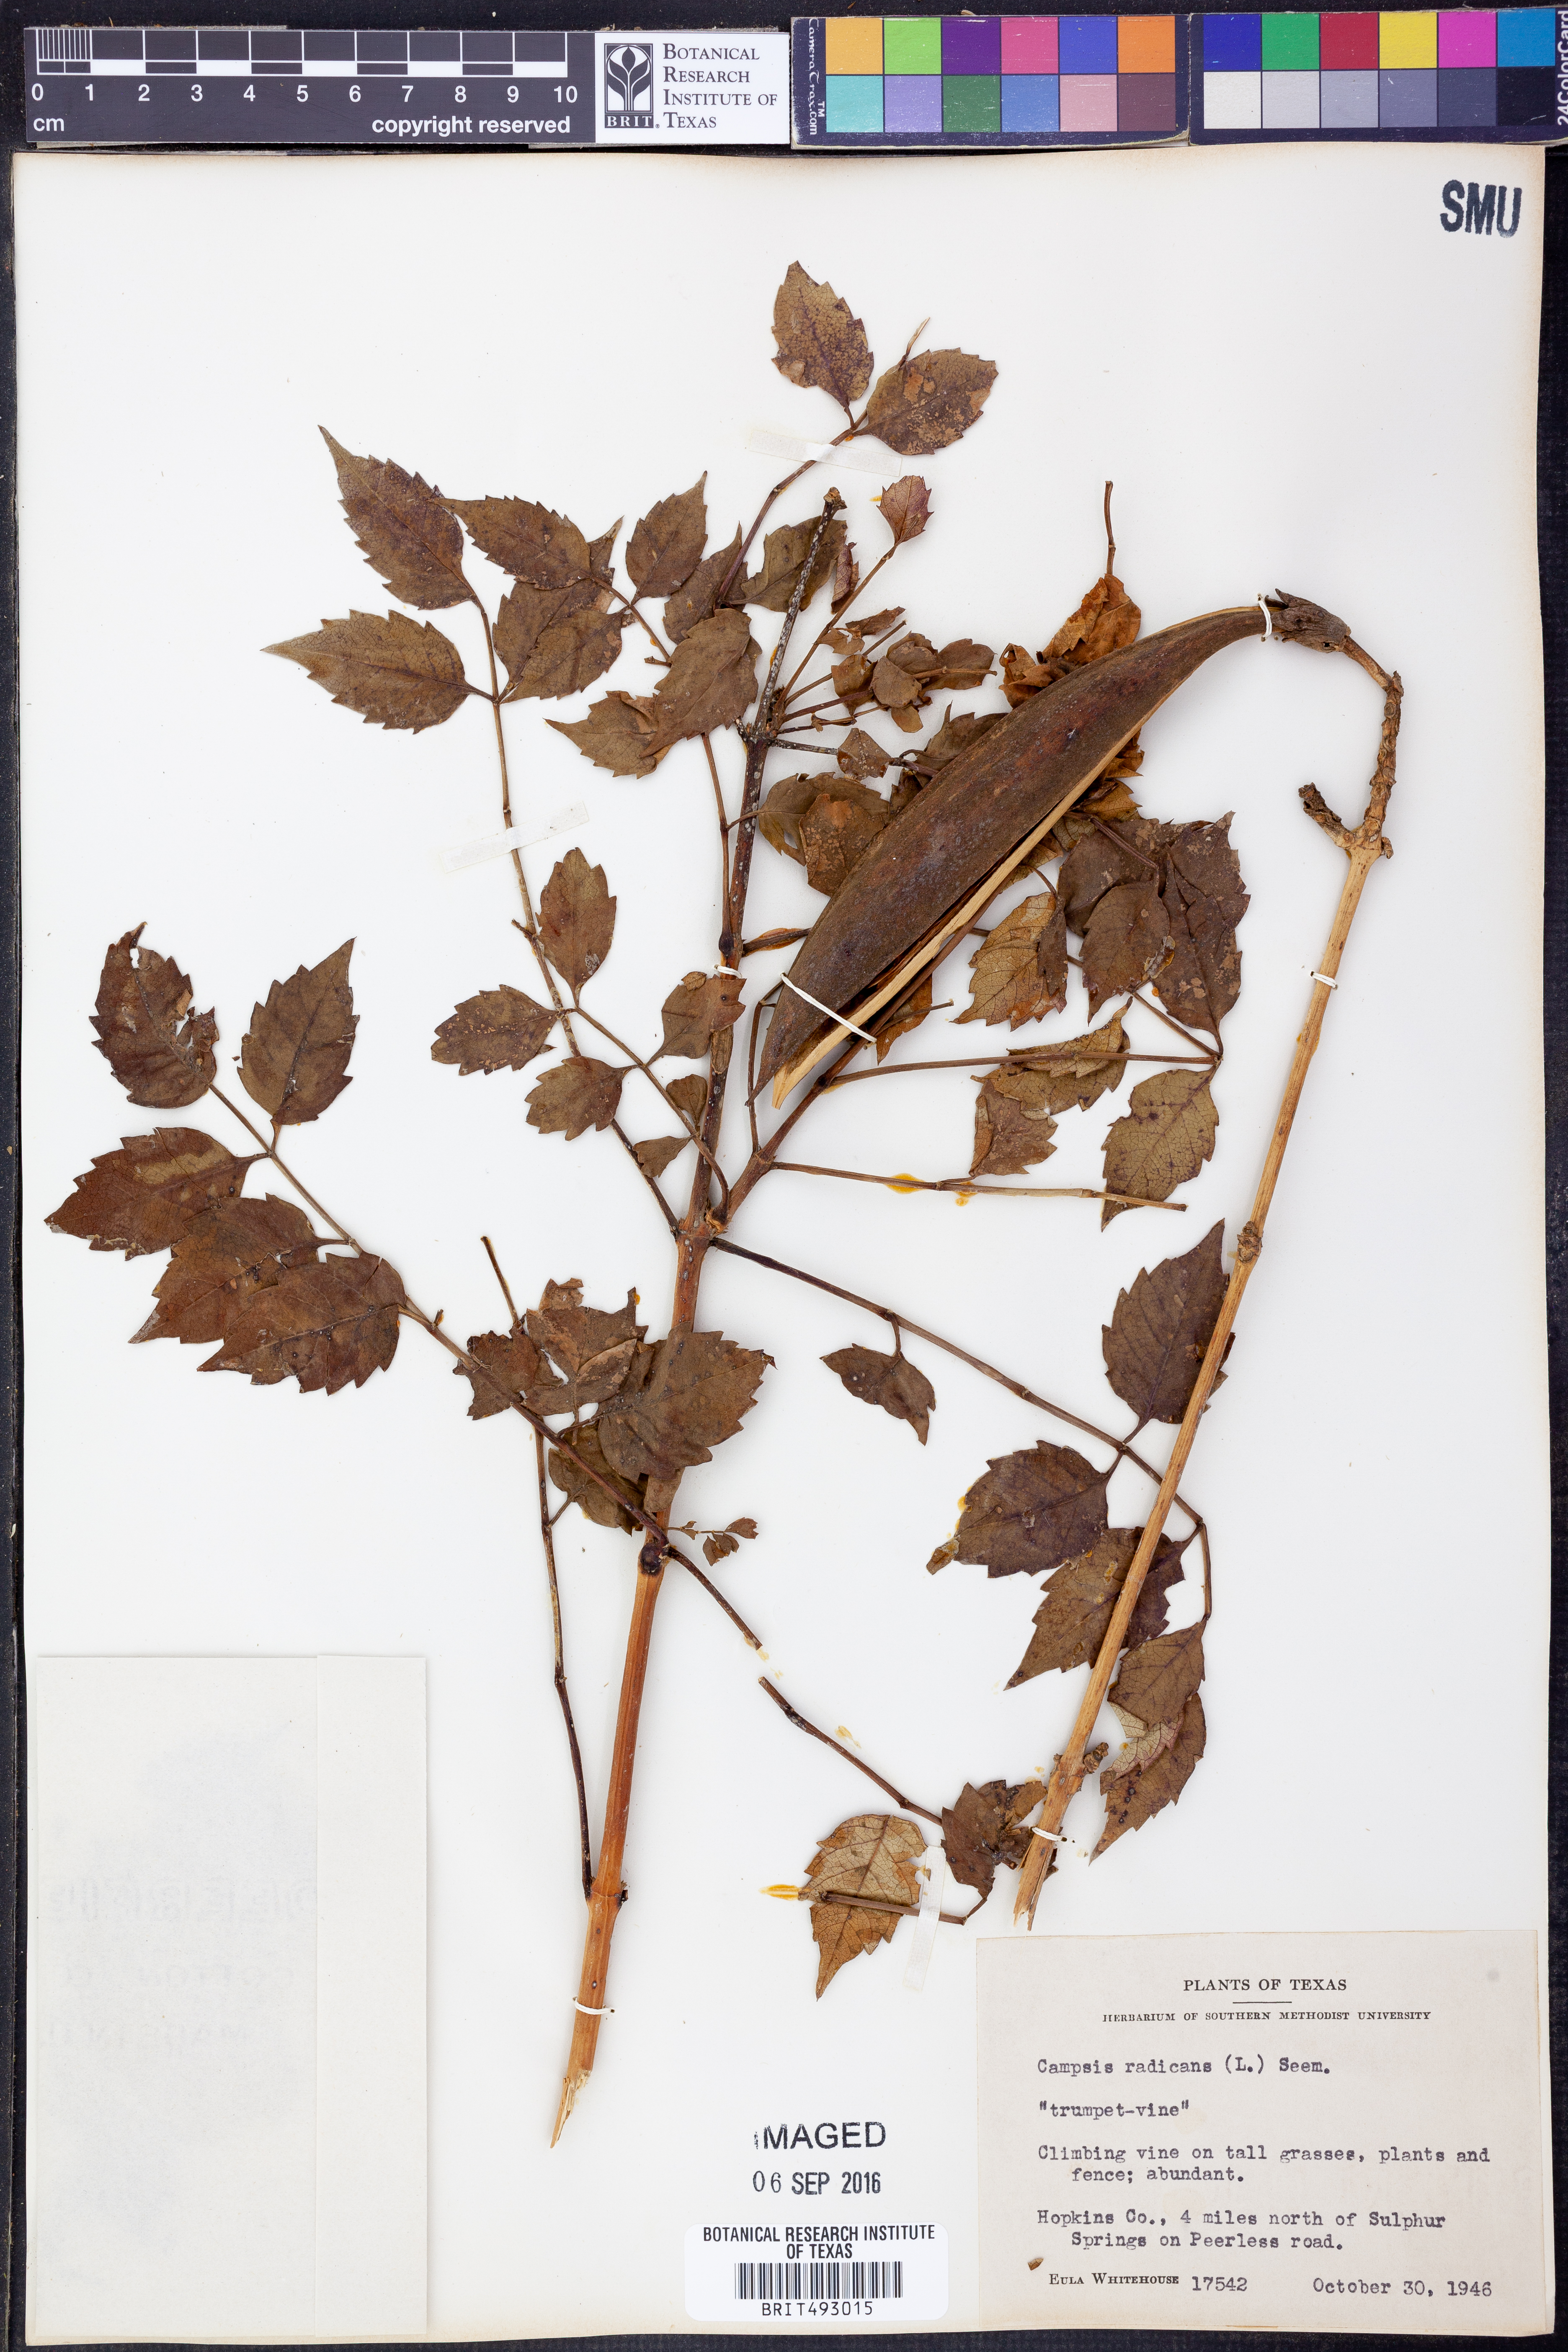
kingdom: Plantae
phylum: Tracheophyta
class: Magnoliopsida
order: Lamiales
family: Bignoniaceae
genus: Campsis
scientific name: Campsis radicans
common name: Trumpet-creeper
